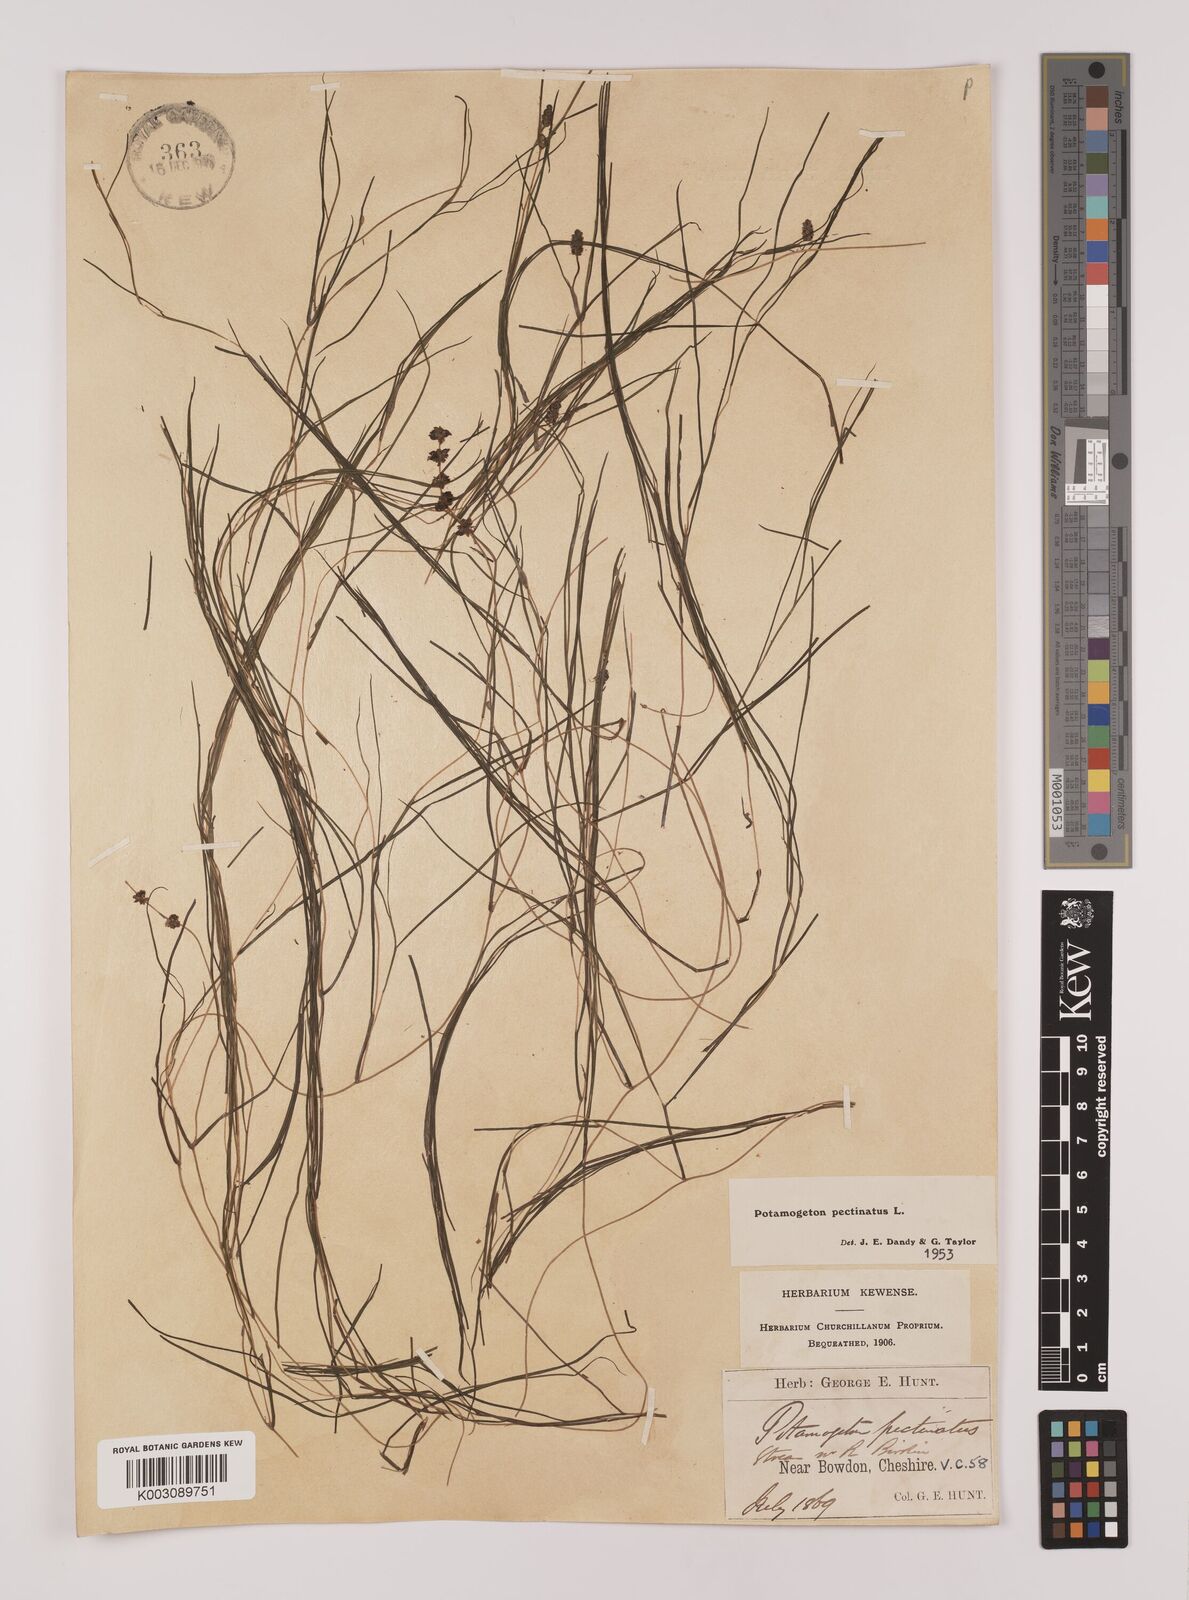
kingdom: Plantae
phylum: Tracheophyta
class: Liliopsida
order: Alismatales
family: Potamogetonaceae
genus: Stuckenia
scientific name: Stuckenia pectinata
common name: Sago pondweed
